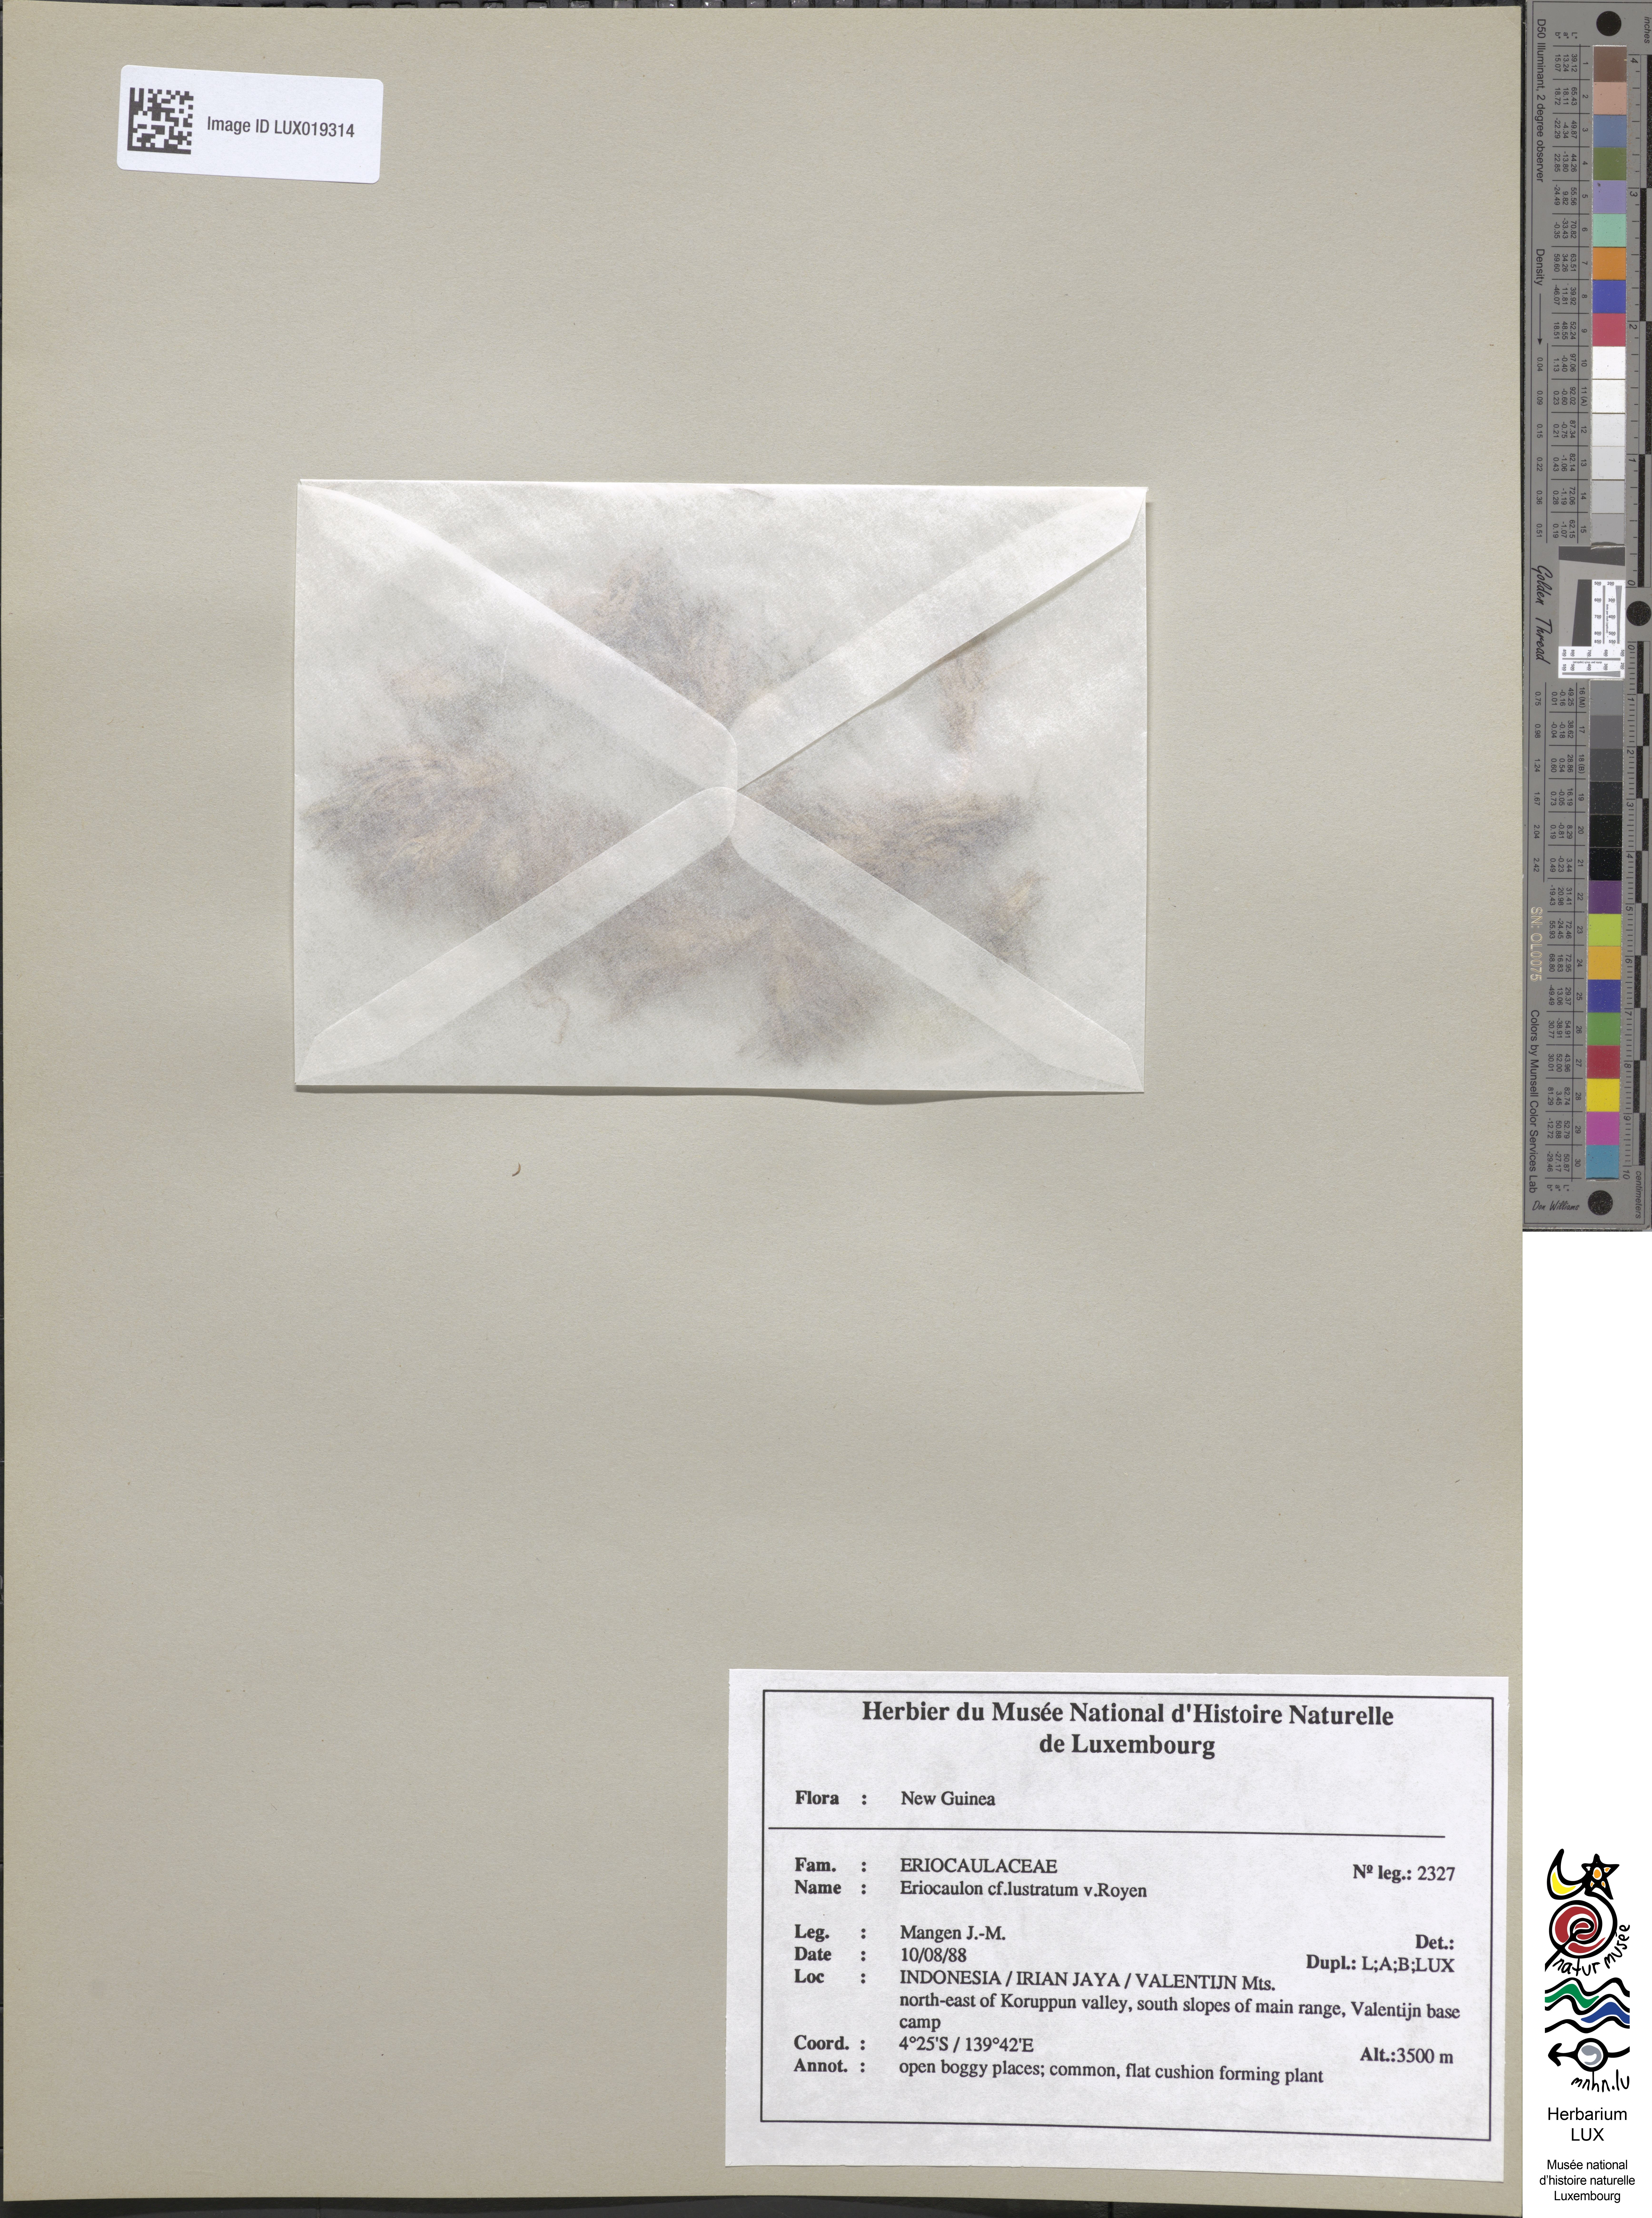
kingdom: Plantae
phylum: Tracheophyta
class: Liliopsida
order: Poales
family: Eriocaulaceae
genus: Eriocaulon
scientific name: Eriocaulon lustratum
